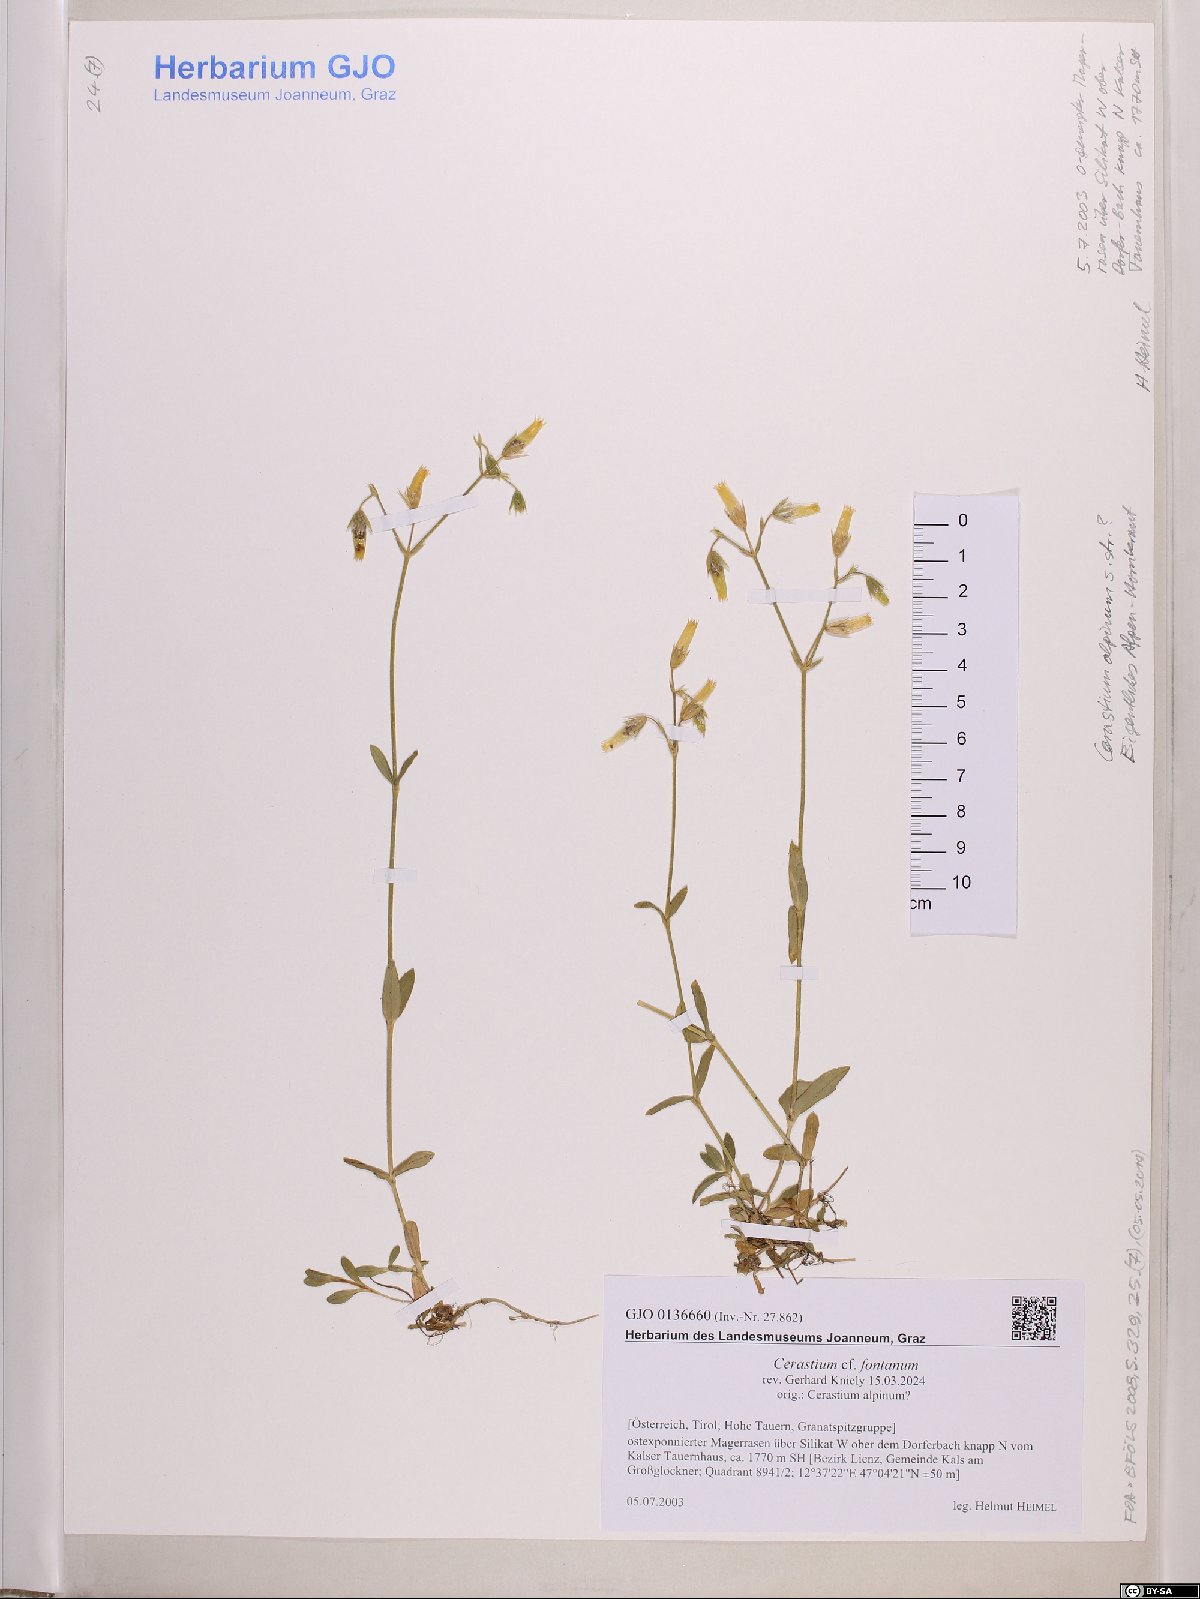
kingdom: Plantae
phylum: Tracheophyta
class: Magnoliopsida
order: Caryophyllales
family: Caryophyllaceae
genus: Cerastium
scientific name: Cerastium fontanum
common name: Common mouse-ear
